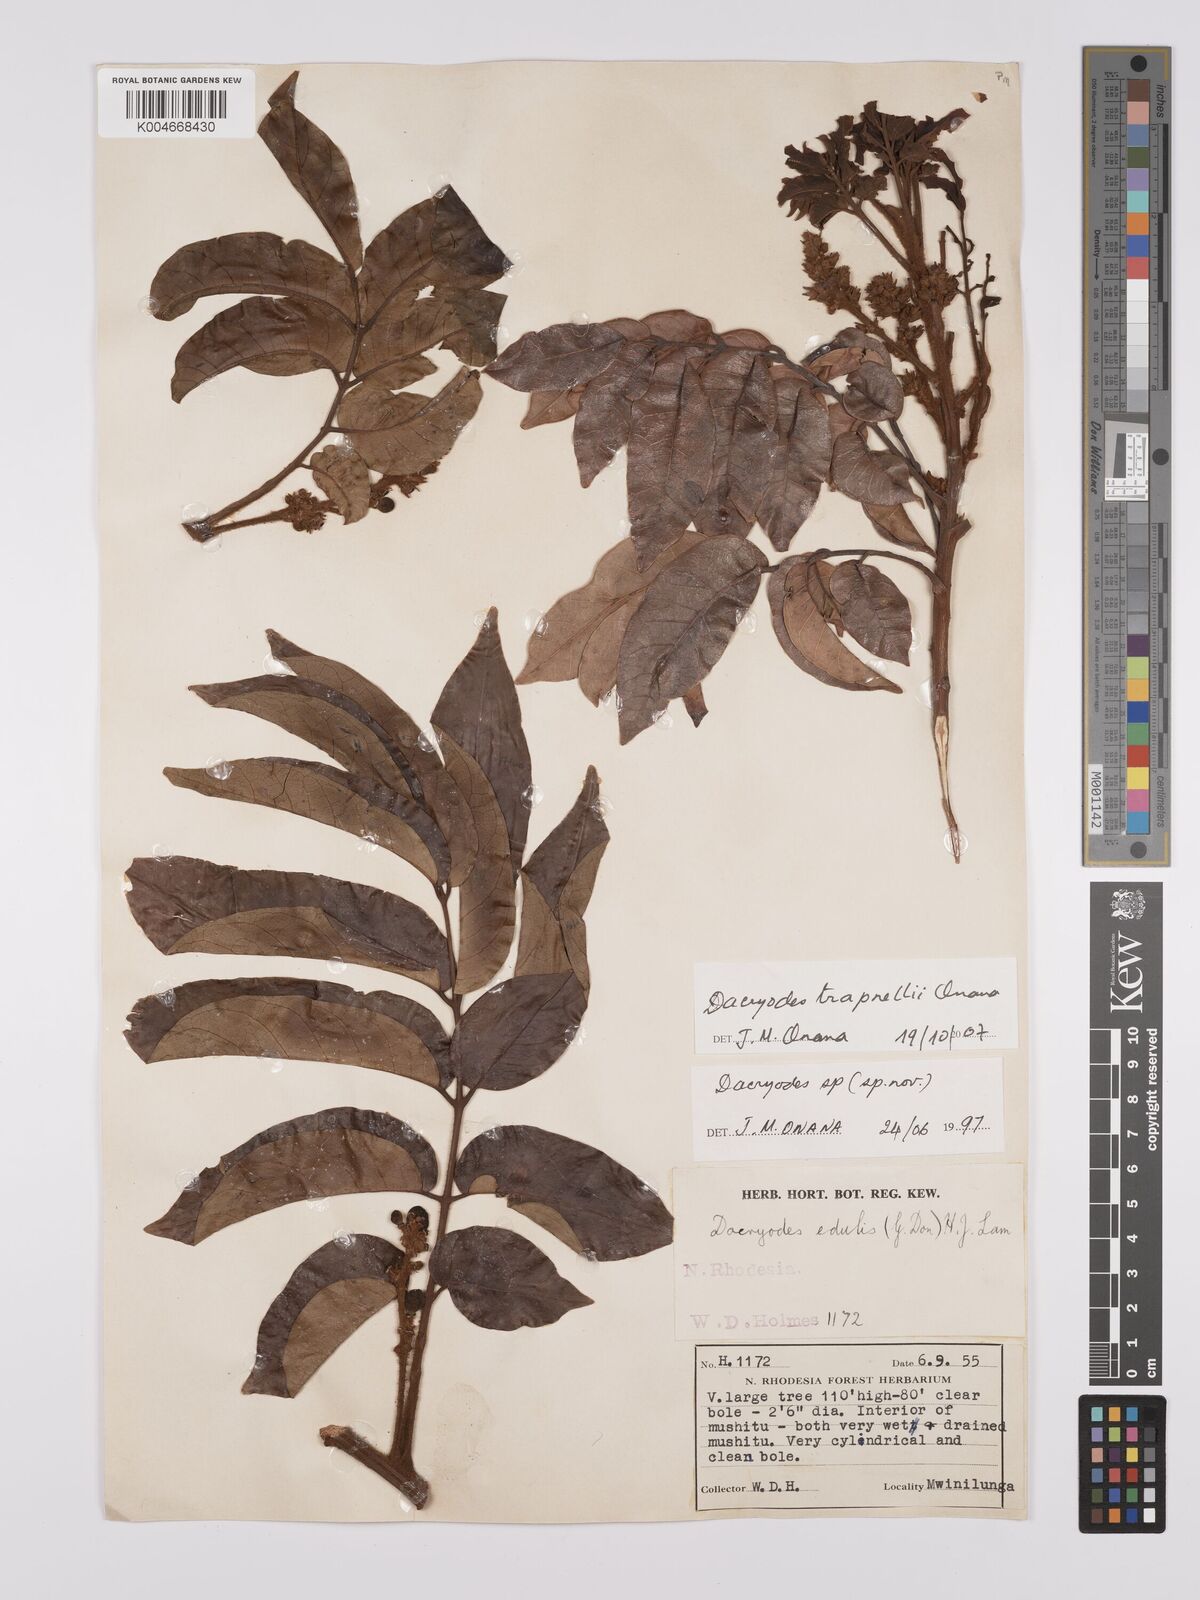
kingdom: Plantae
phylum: Tracheophyta
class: Magnoliopsida
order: Sapindales
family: Burseraceae
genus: Pachylobus
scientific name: Pachylobus trapnellii
